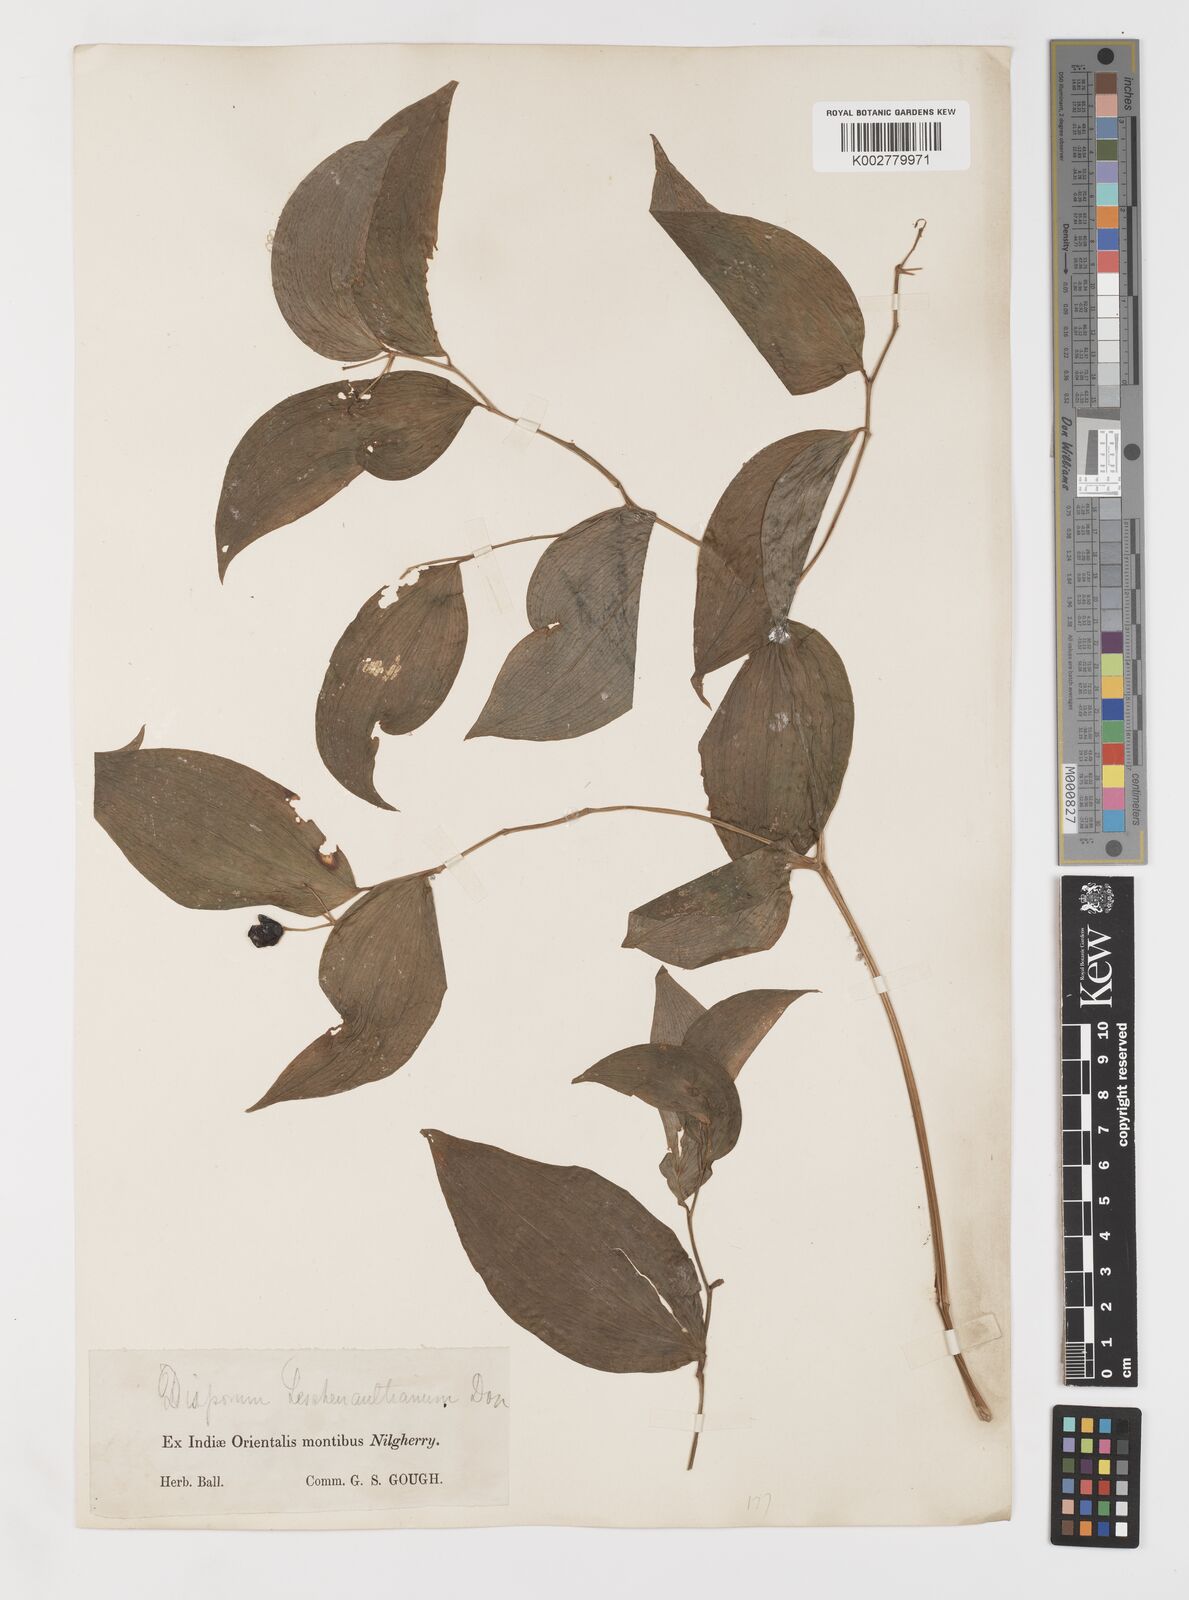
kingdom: Plantae
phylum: Tracheophyta
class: Liliopsida
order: Liliales
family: Colchicaceae
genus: Disporum
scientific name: Disporum cantoniense
